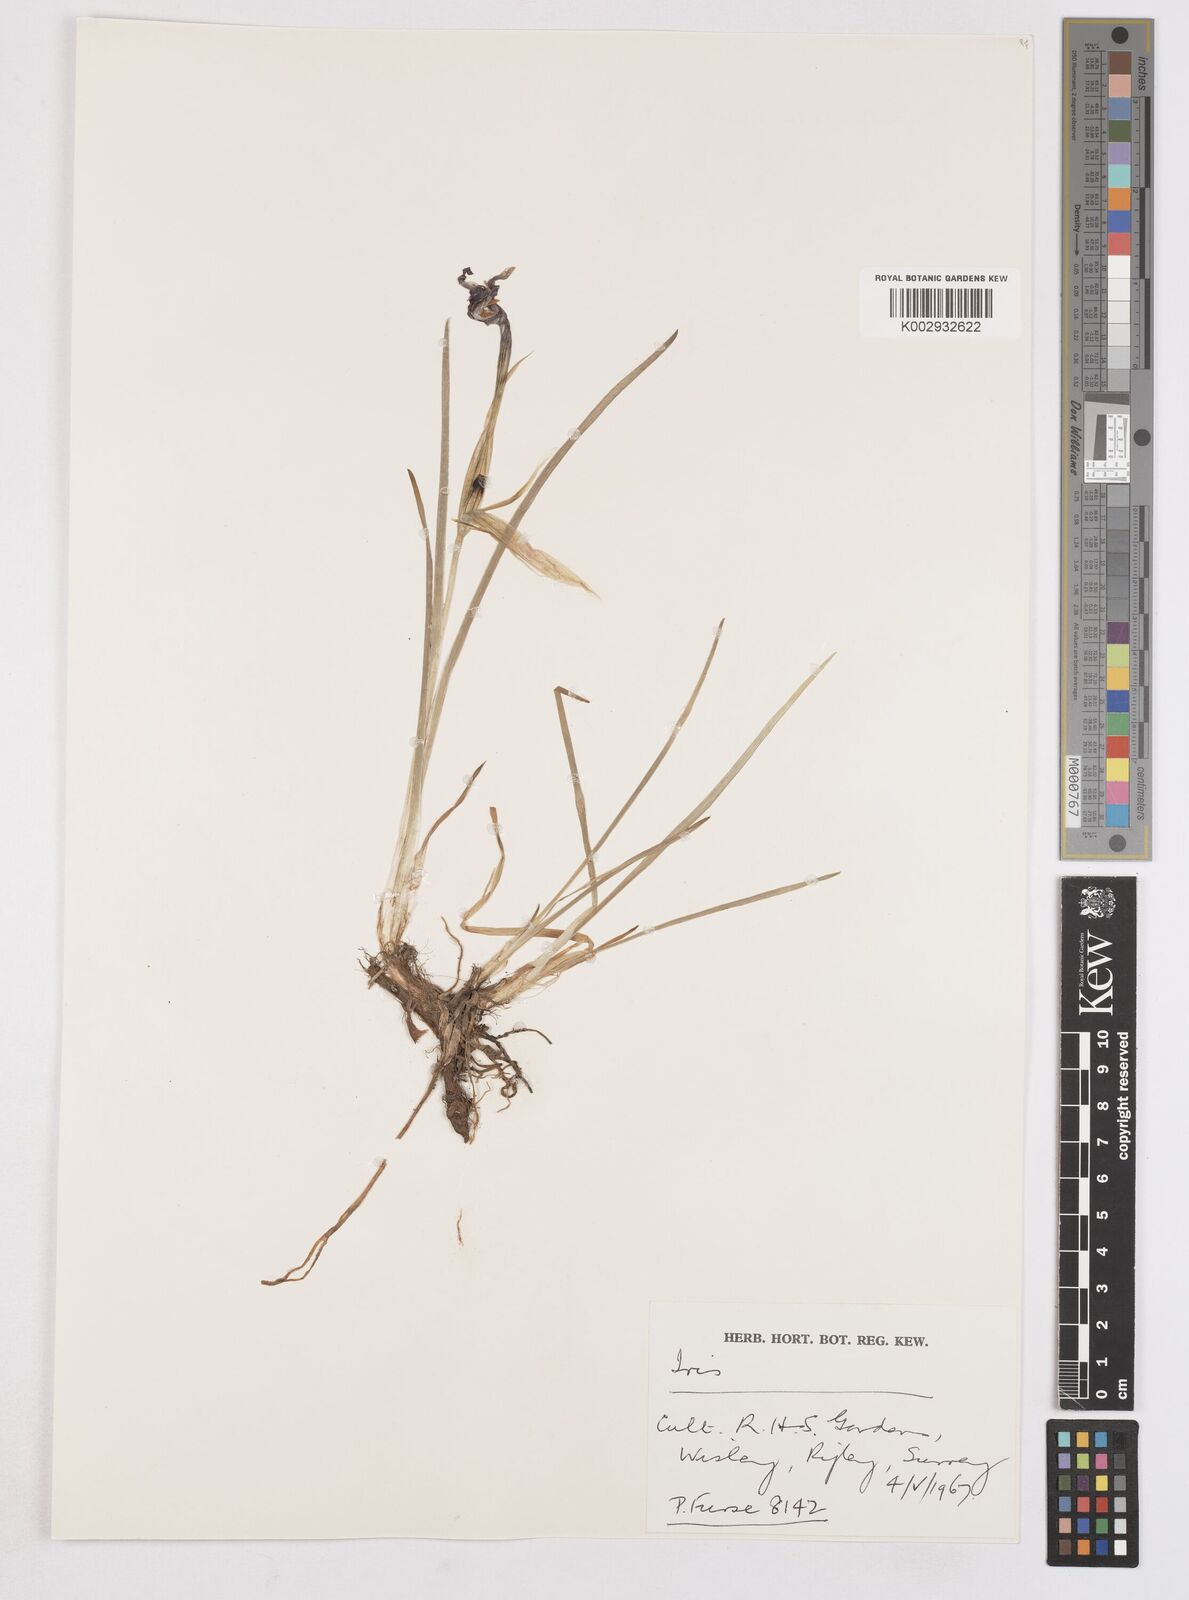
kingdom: Plantae
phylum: Tracheophyta
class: Liliopsida
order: Asparagales
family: Iridaceae
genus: Iris
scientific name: Iris
